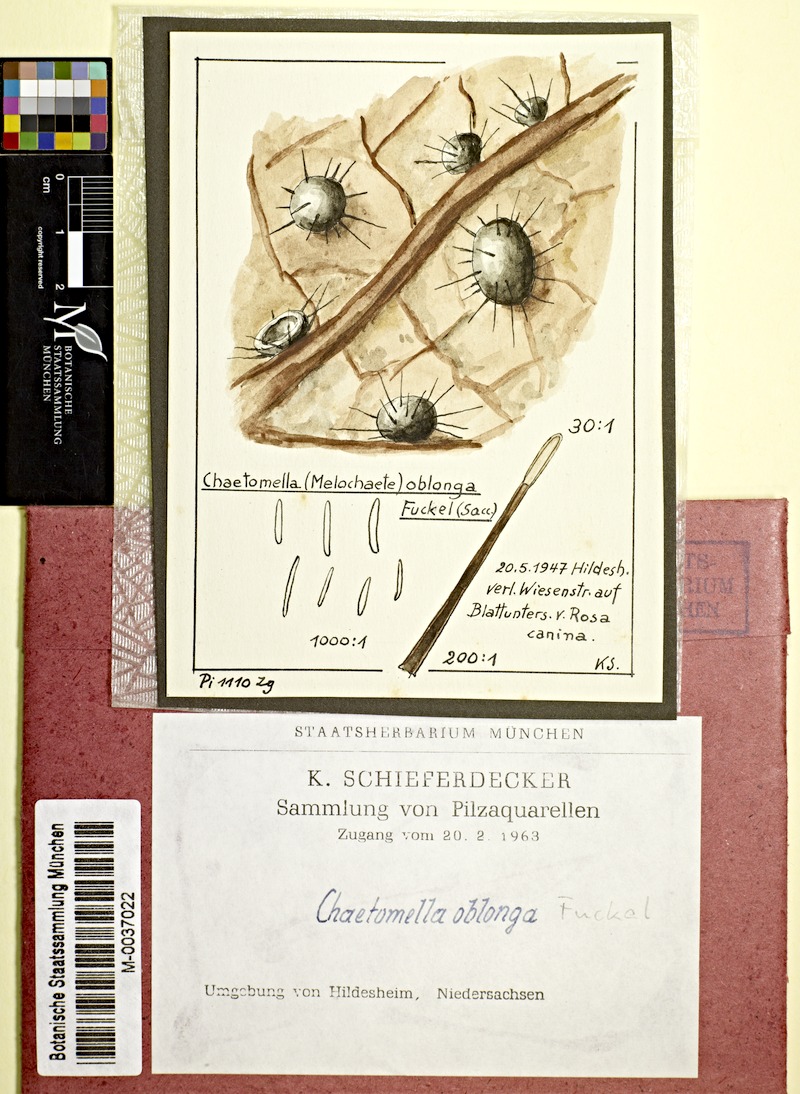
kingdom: Fungi
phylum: Ascomycota
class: Leotiomycetes
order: Chaetomellales
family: Chaetomellaceae
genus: Chaetomella
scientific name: Chaetomella oblonga
